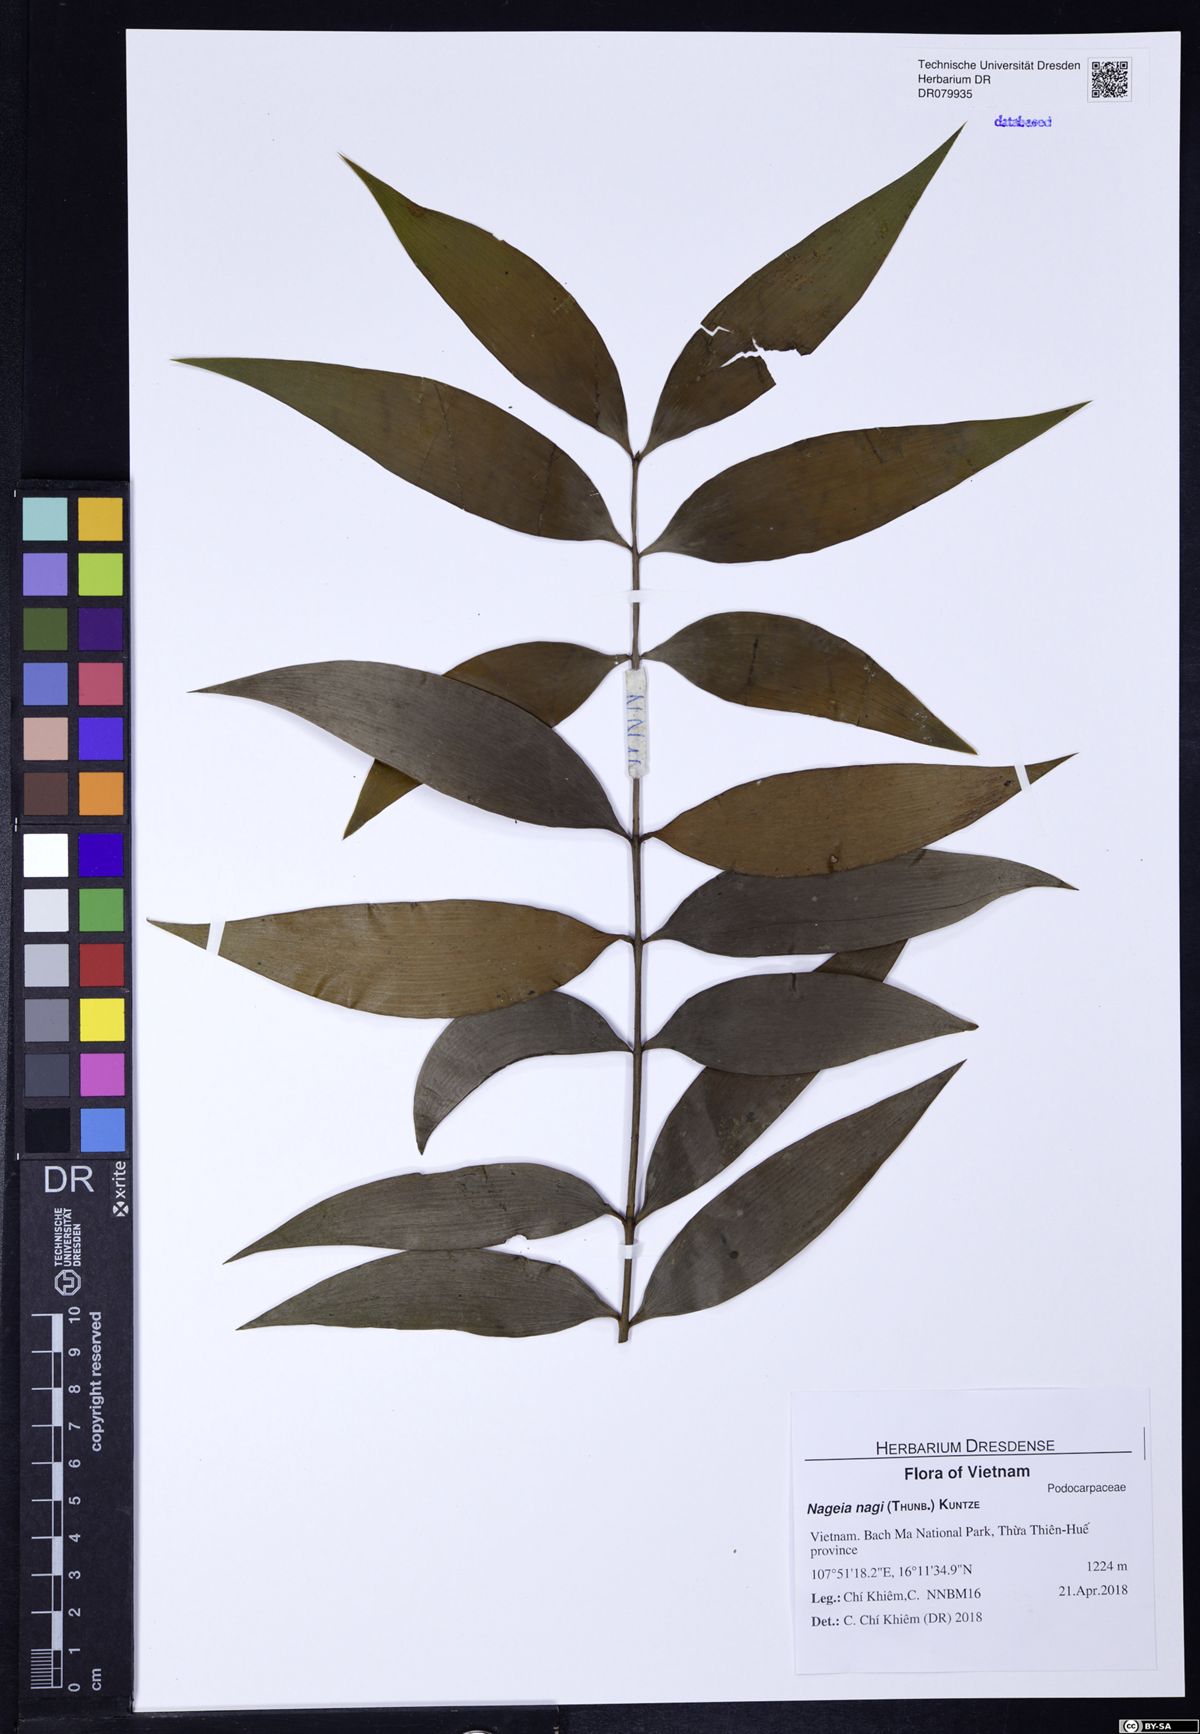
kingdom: Plantae
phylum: Tracheophyta
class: Pinopsida
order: Pinales
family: Podocarpaceae
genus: Nageia
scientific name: Nageia nagi
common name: Kaphal
